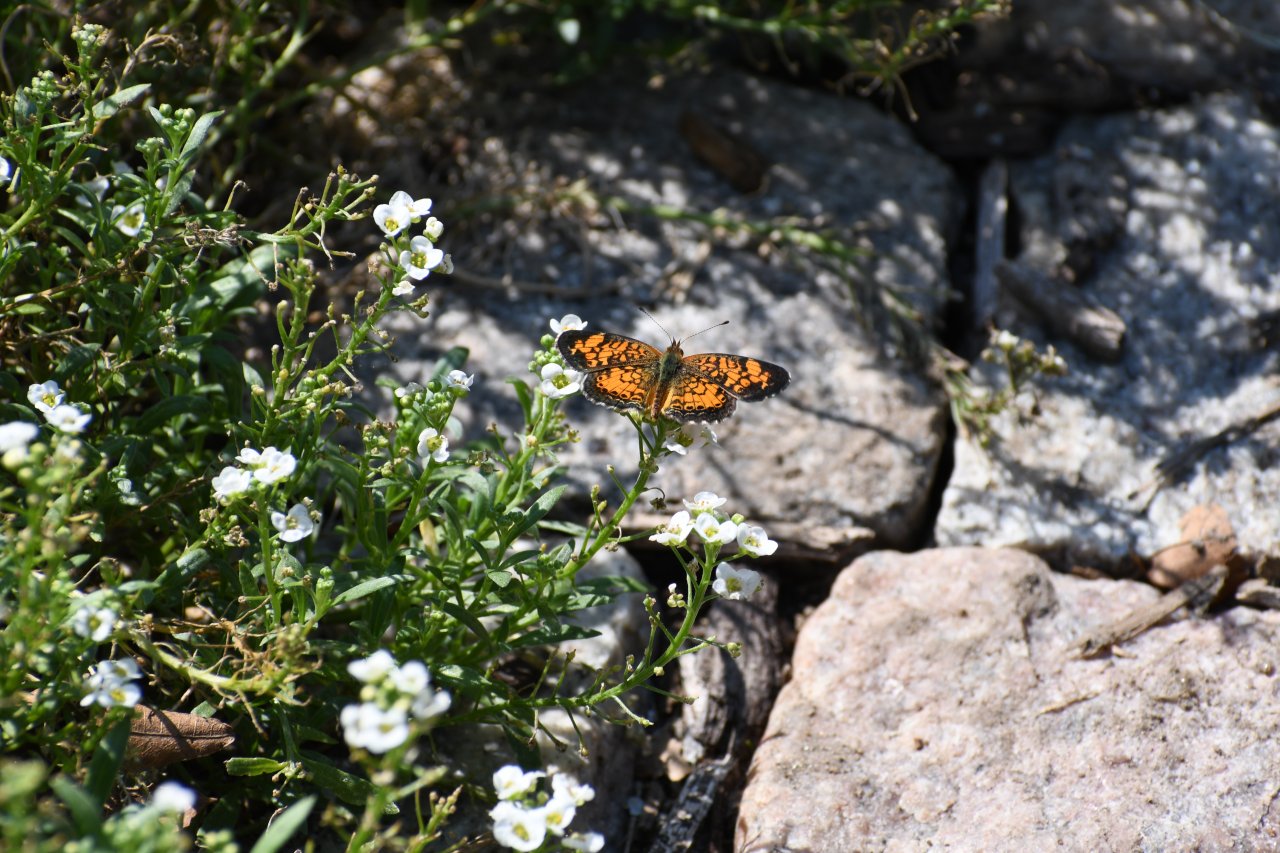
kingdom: Animalia
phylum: Arthropoda
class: Insecta
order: Lepidoptera
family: Nymphalidae
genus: Phyciodes
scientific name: Phyciodes tharos
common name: Pearl Crescent
